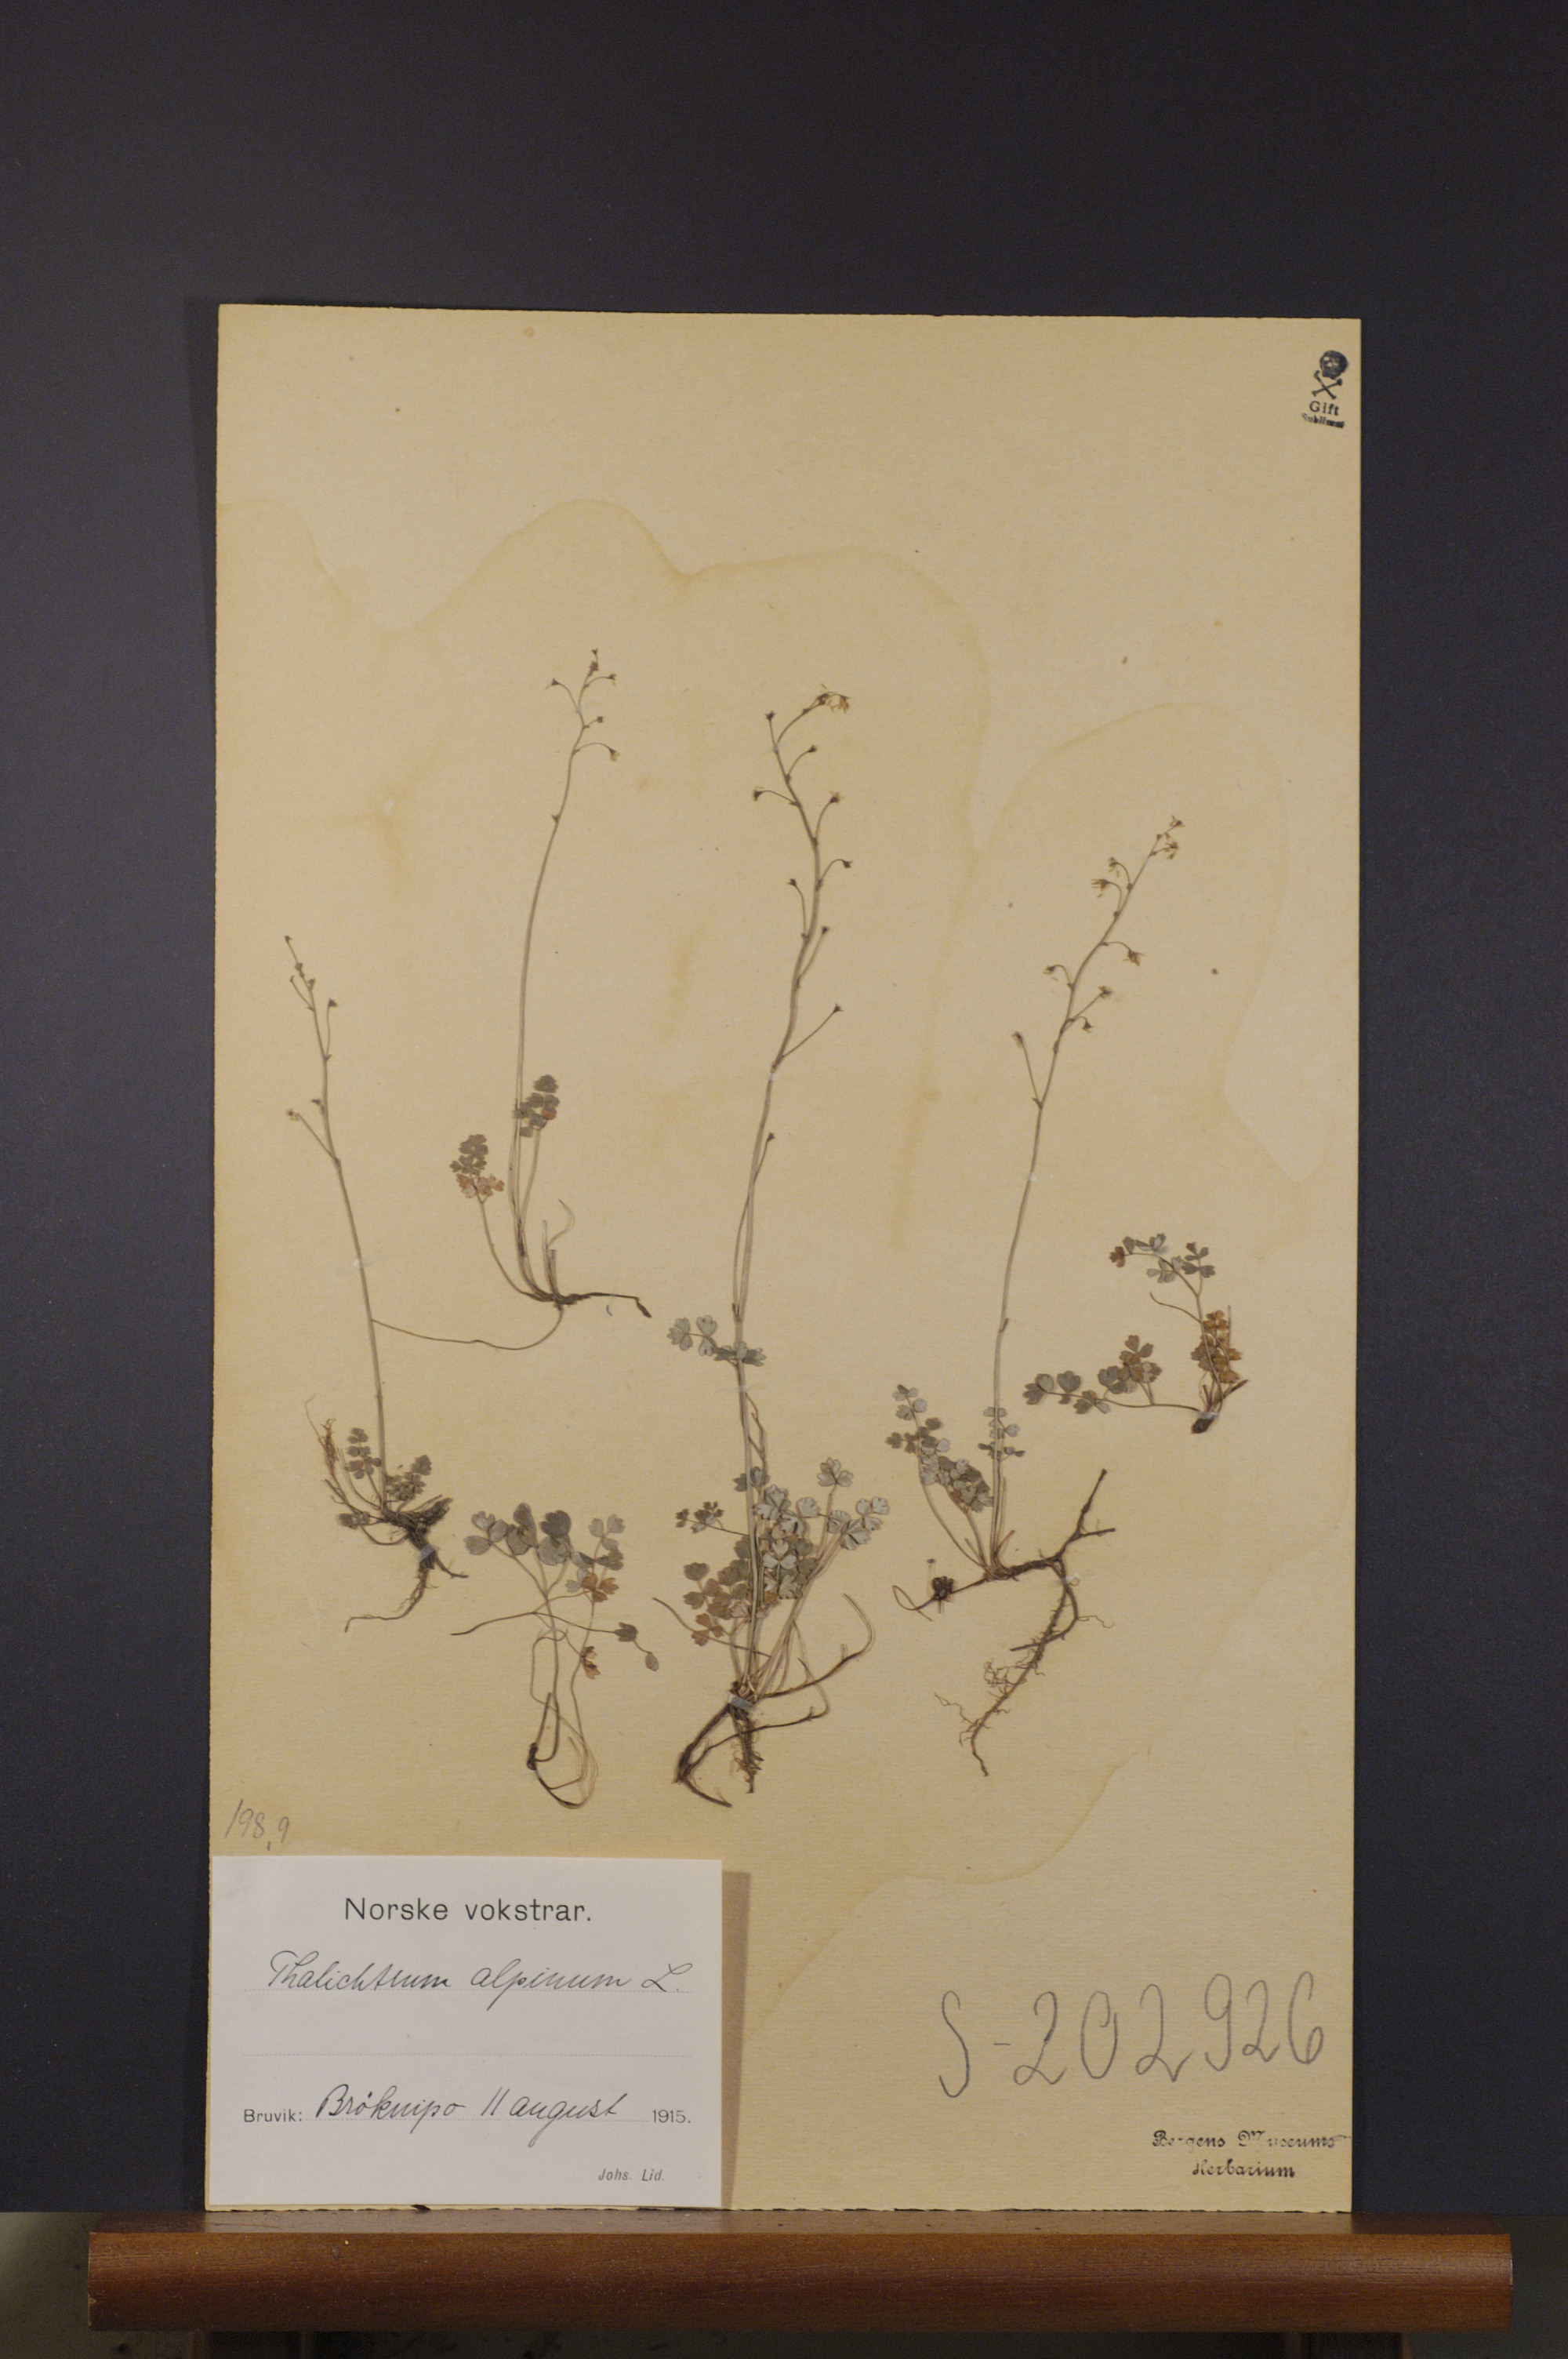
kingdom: Plantae
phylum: Tracheophyta
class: Magnoliopsida
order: Ranunculales
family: Ranunculaceae
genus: Thalictrum
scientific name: Thalictrum alpinum
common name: Alpine meadow-rue
